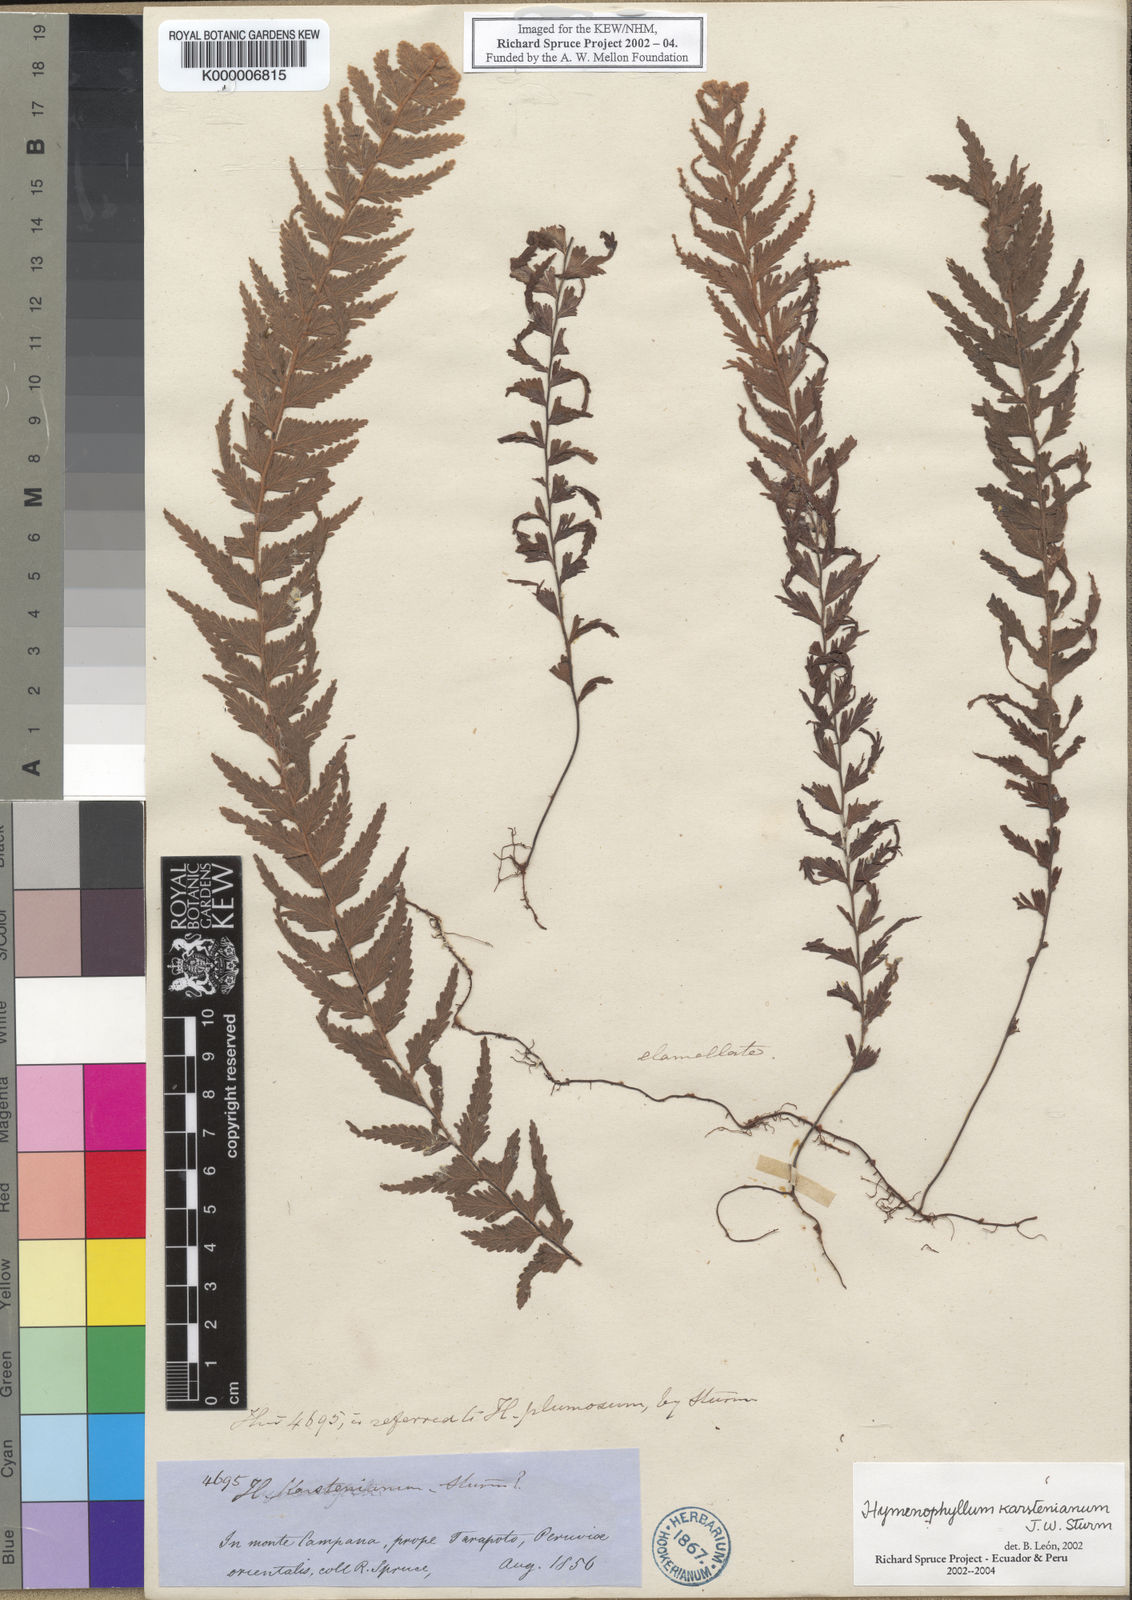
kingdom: Plantae
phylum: Tracheophyta
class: Polypodiopsida
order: Hymenophyllales
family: Hymenophyllaceae
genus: Hymenophyllum
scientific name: Hymenophyllum karstenianum
